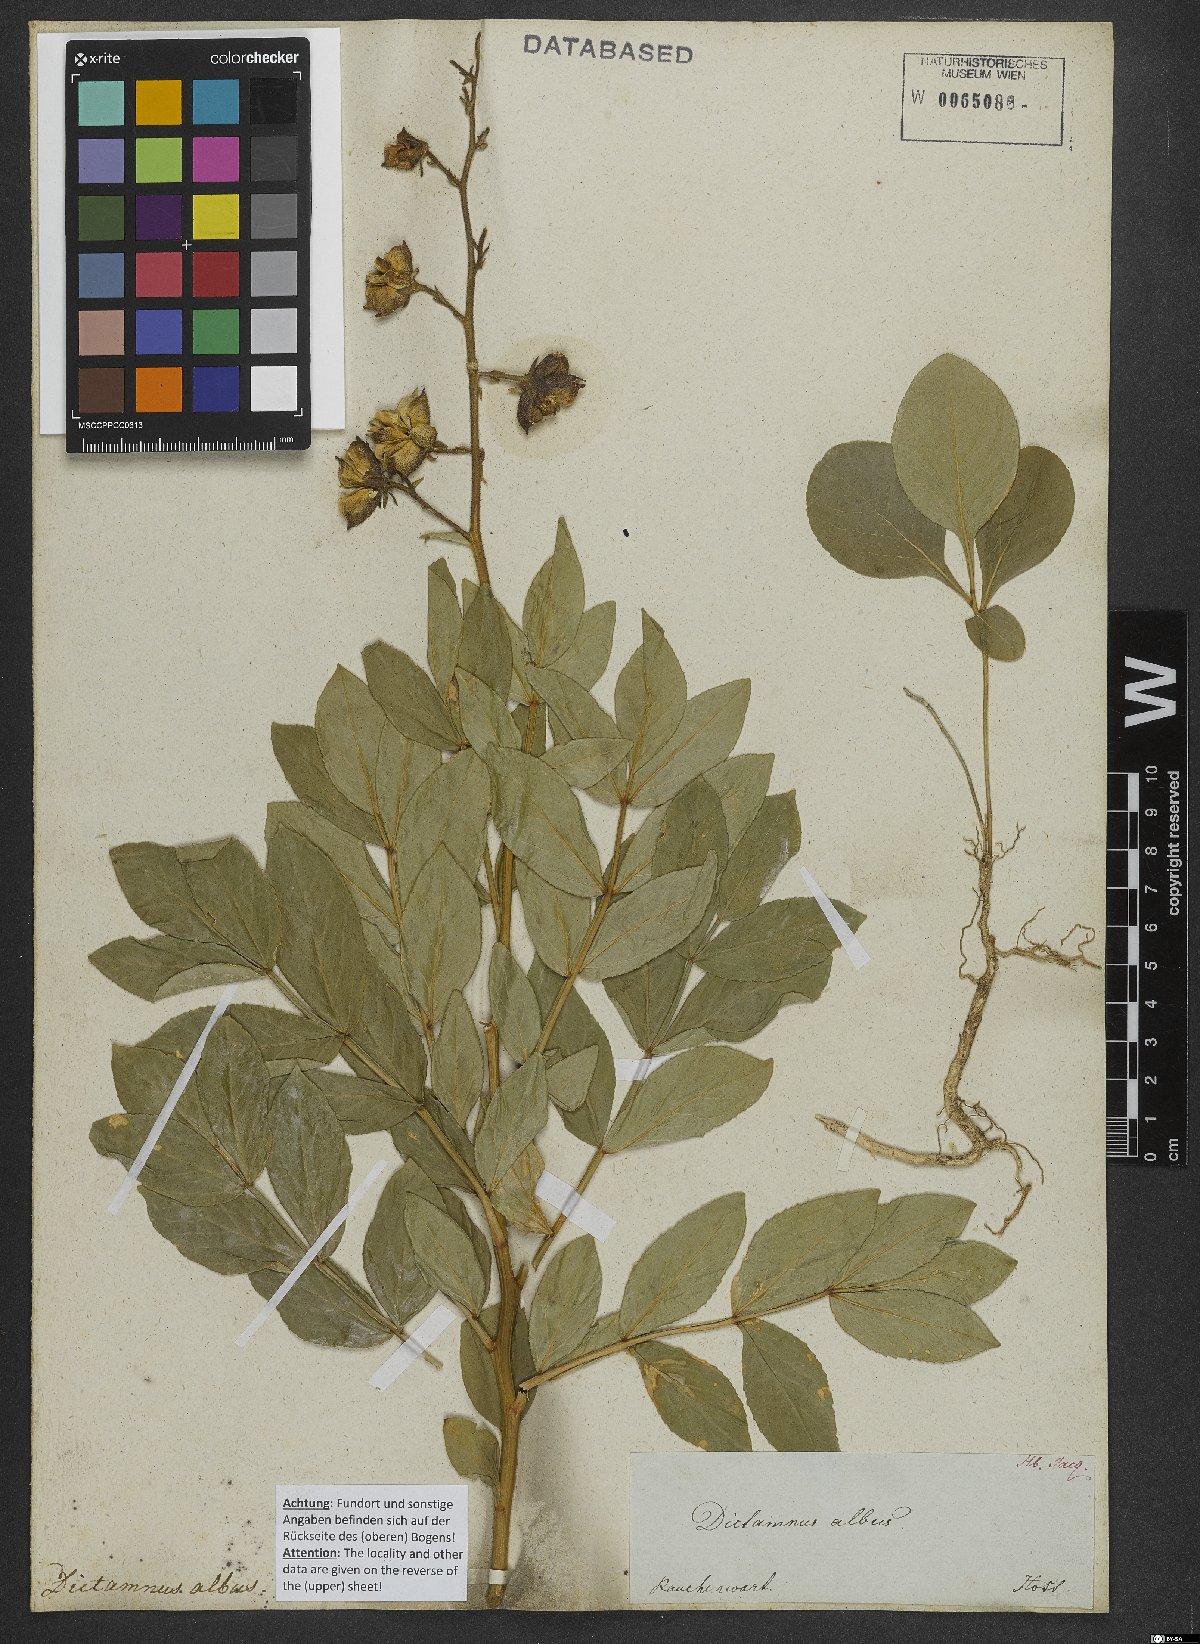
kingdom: Plantae
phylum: Tracheophyta
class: Magnoliopsida
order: Sapindales
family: Rutaceae
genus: Dictamnus
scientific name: Dictamnus albus
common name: Gasplant
